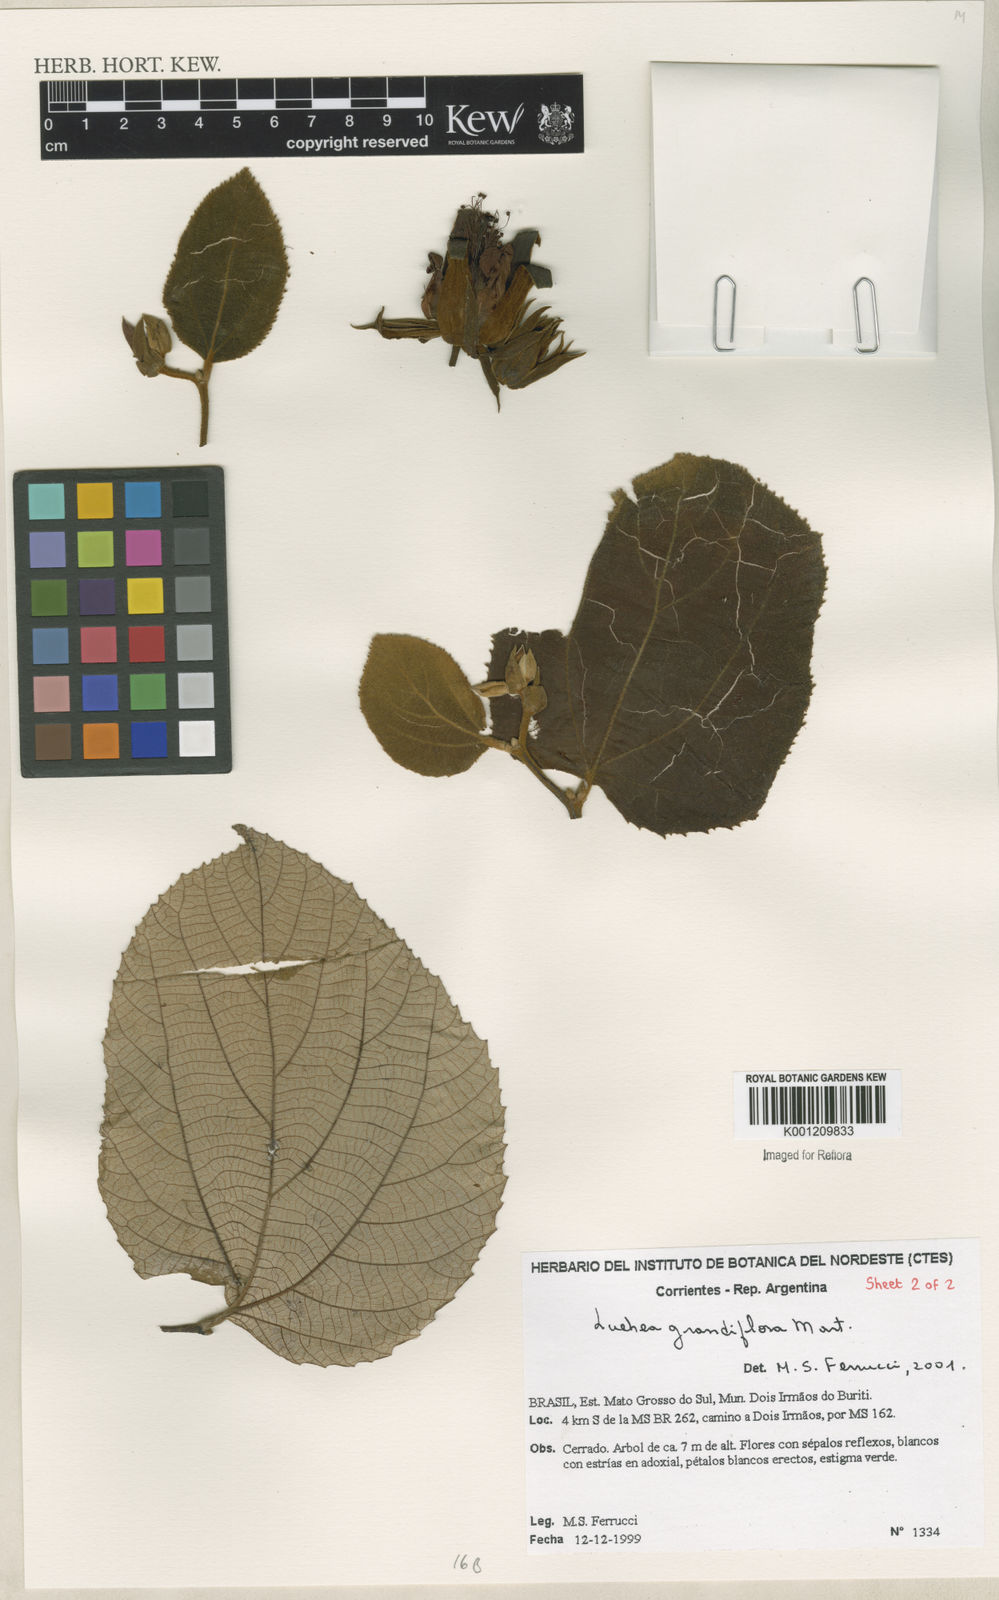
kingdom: Plantae
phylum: Tracheophyta
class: Magnoliopsida
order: Malvales
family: Malvaceae
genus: Luehea
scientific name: Luehea grandiflora
